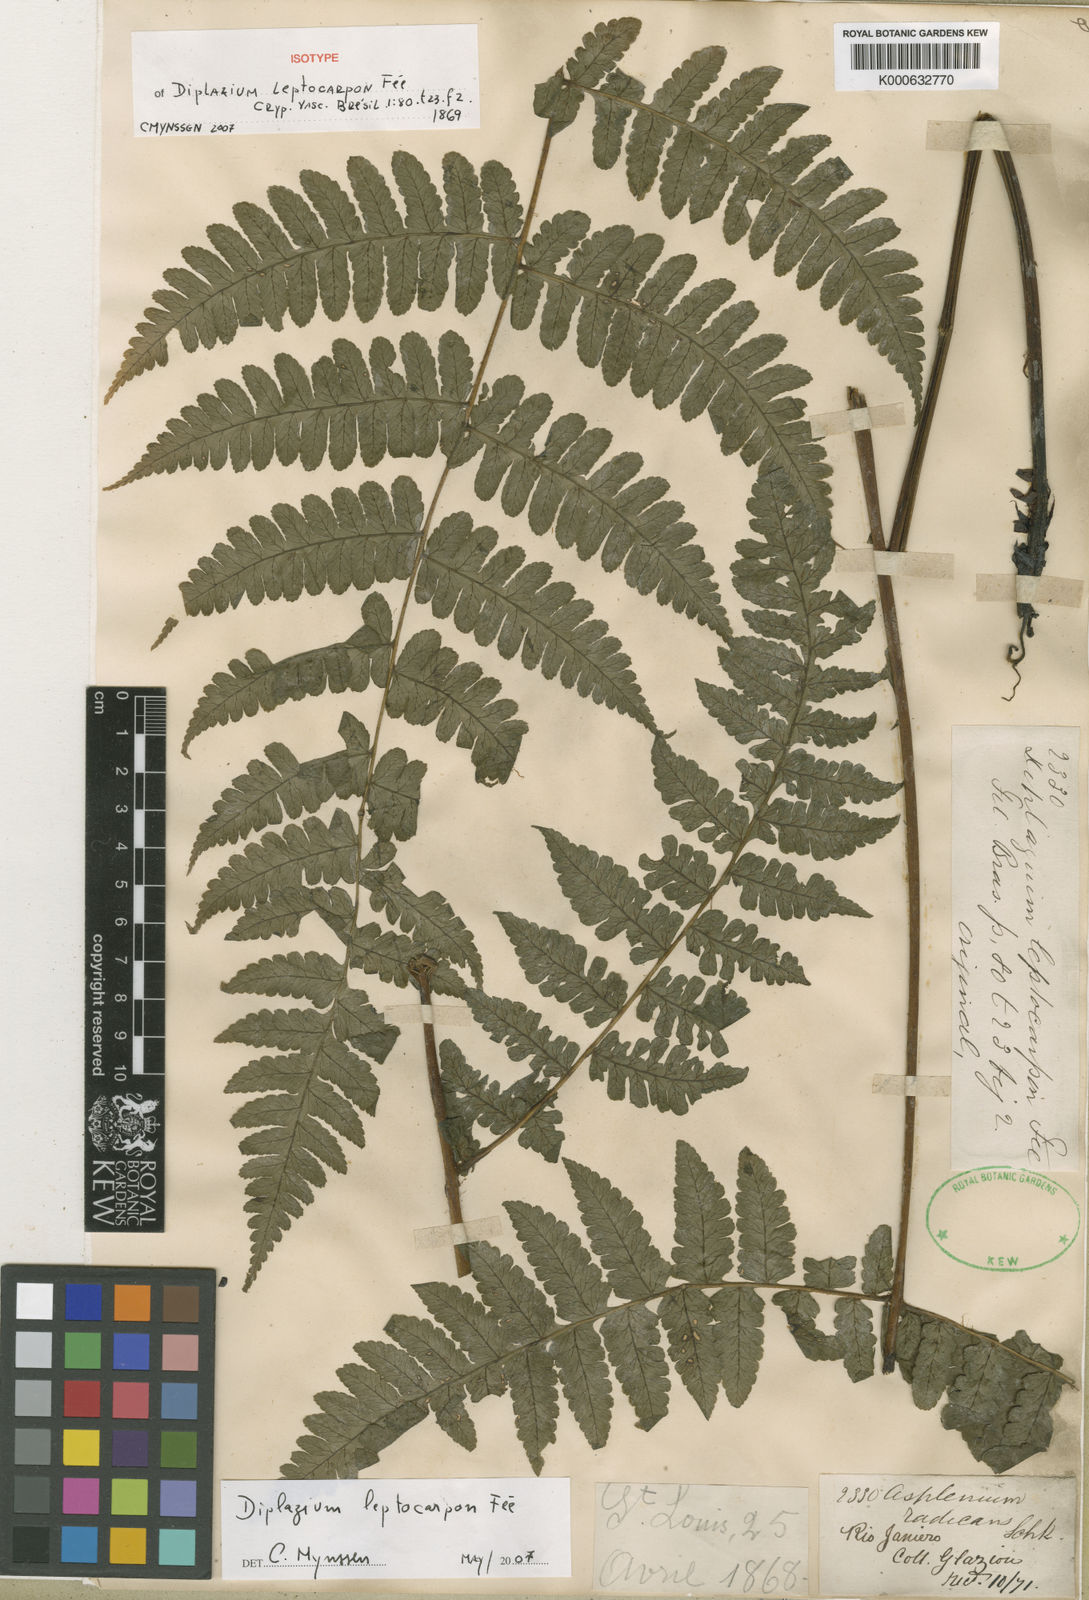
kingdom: Plantae
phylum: Tracheophyta
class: Polypodiopsida
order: Polypodiales
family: Athyriaceae
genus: Diplazium
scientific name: Diplazium
